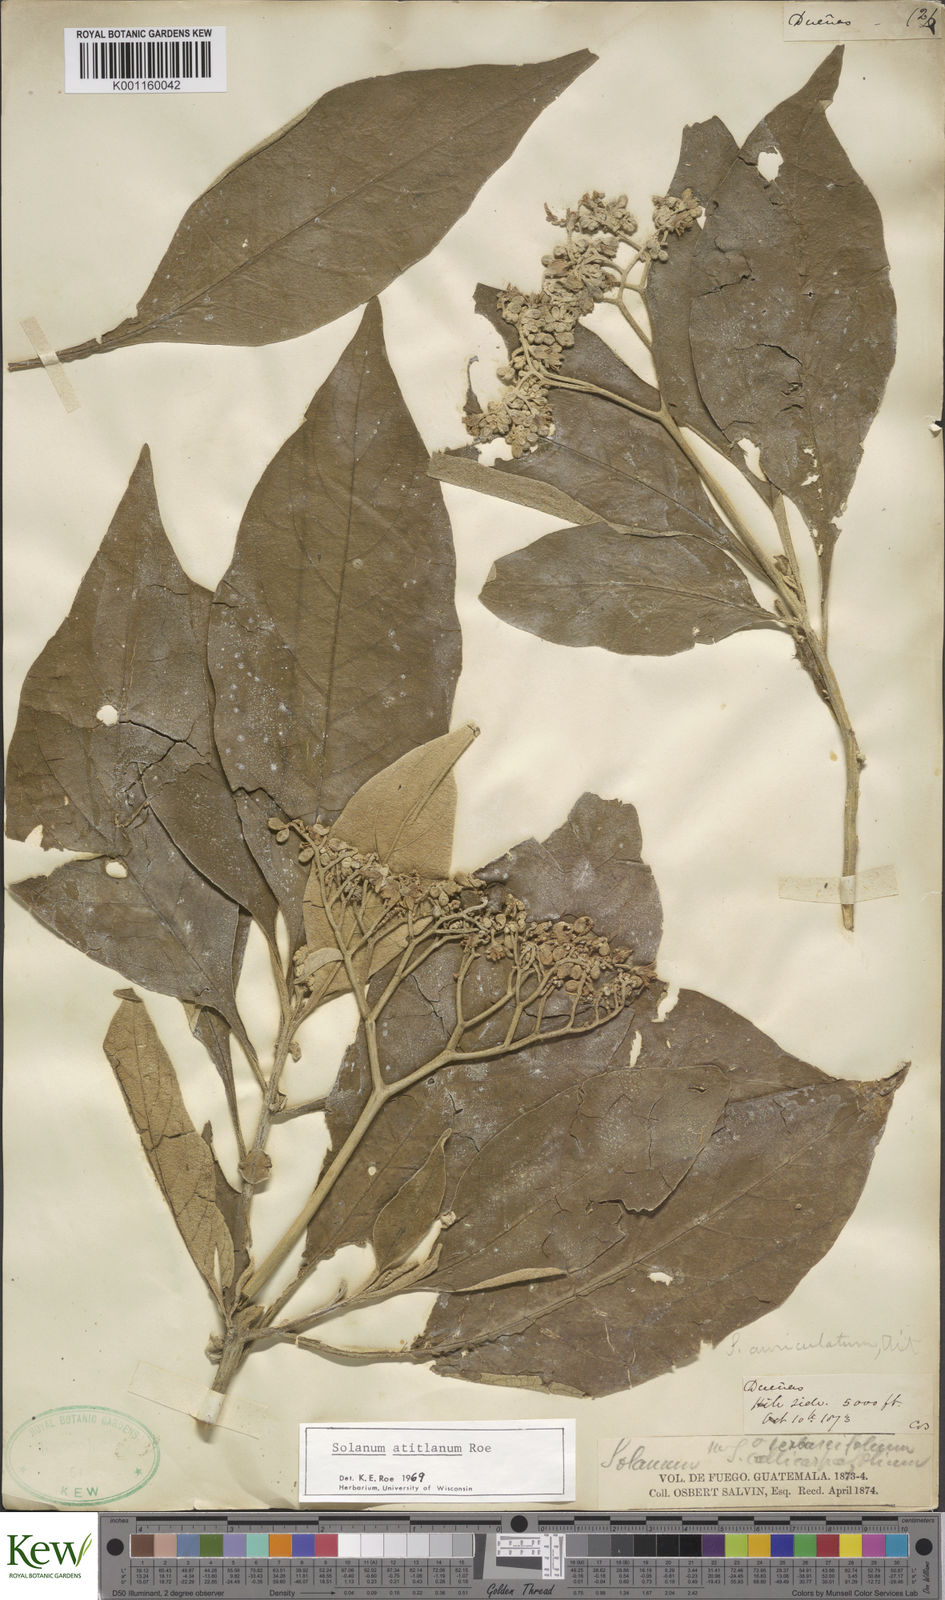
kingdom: Plantae
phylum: Tracheophyta
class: Magnoliopsida
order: Solanales
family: Solanaceae
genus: Solanum
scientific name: Solanum atitlanum
